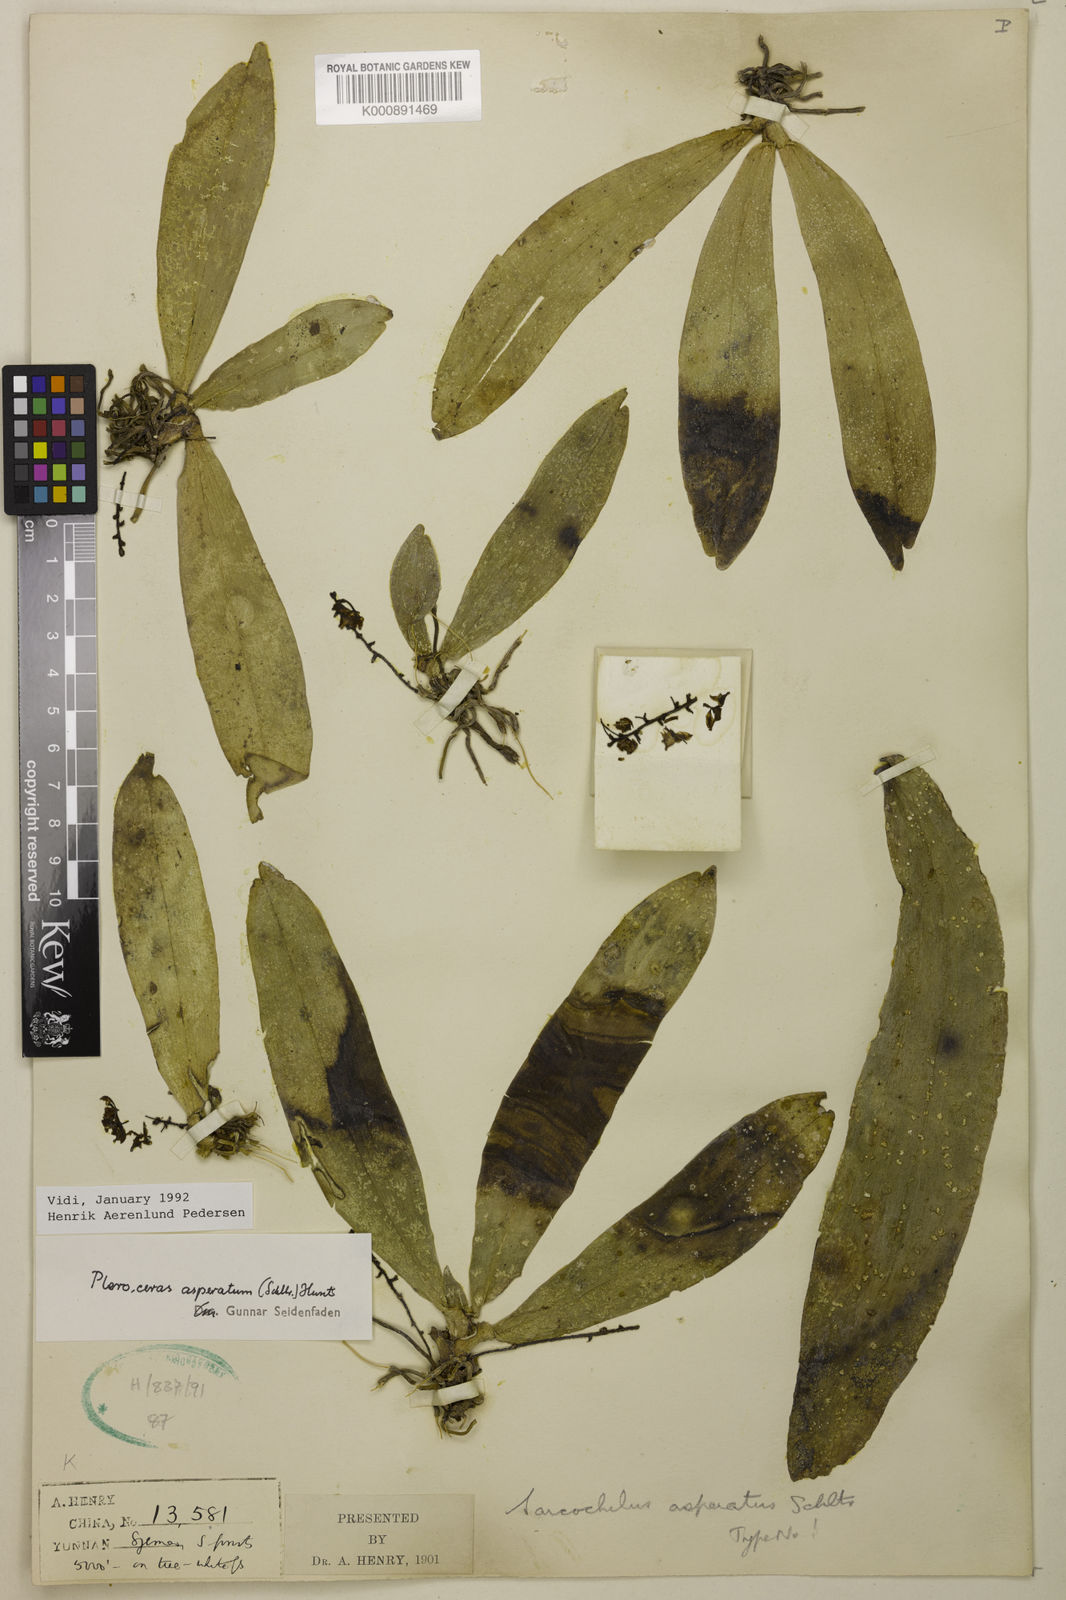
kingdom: Plantae
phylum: Tracheophyta
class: Liliopsida
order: Asparagales
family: Orchidaceae
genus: Pteroceras
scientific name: Pteroceras asperatum
